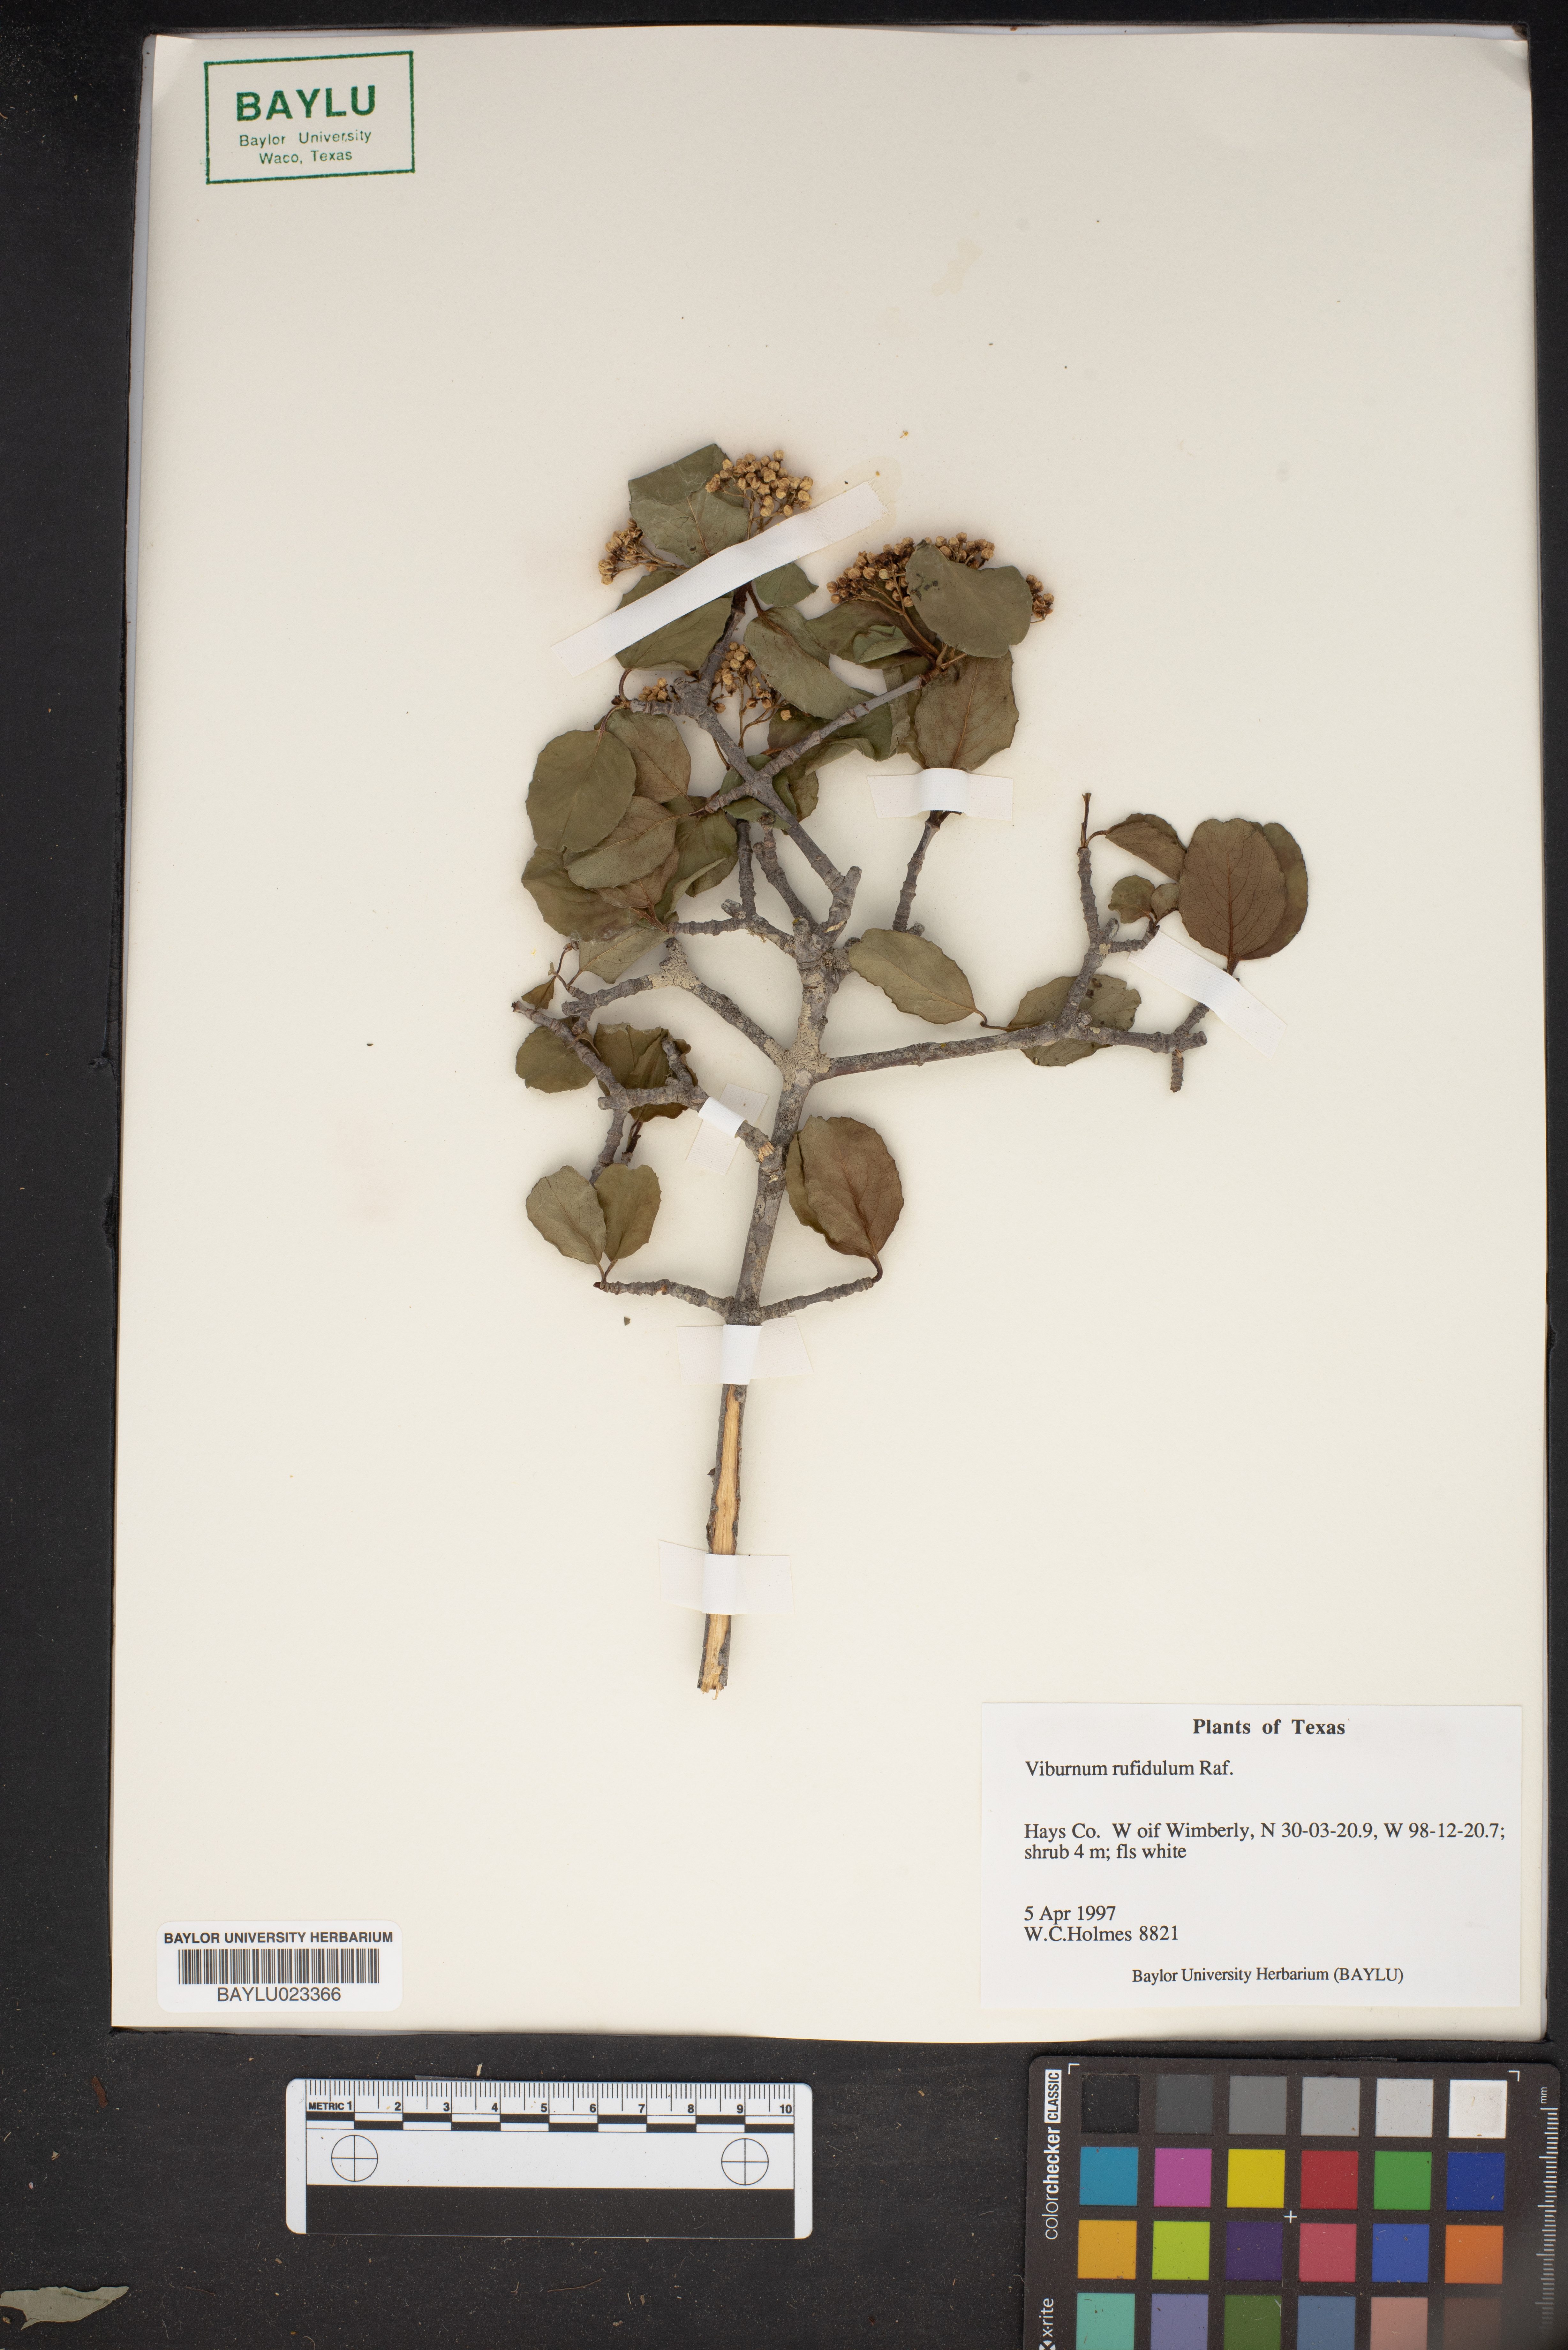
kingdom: Plantae
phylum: Tracheophyta
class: Magnoliopsida
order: Dipsacales
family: Viburnaceae
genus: Viburnum
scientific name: Viburnum rufidulum
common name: Blue haw
